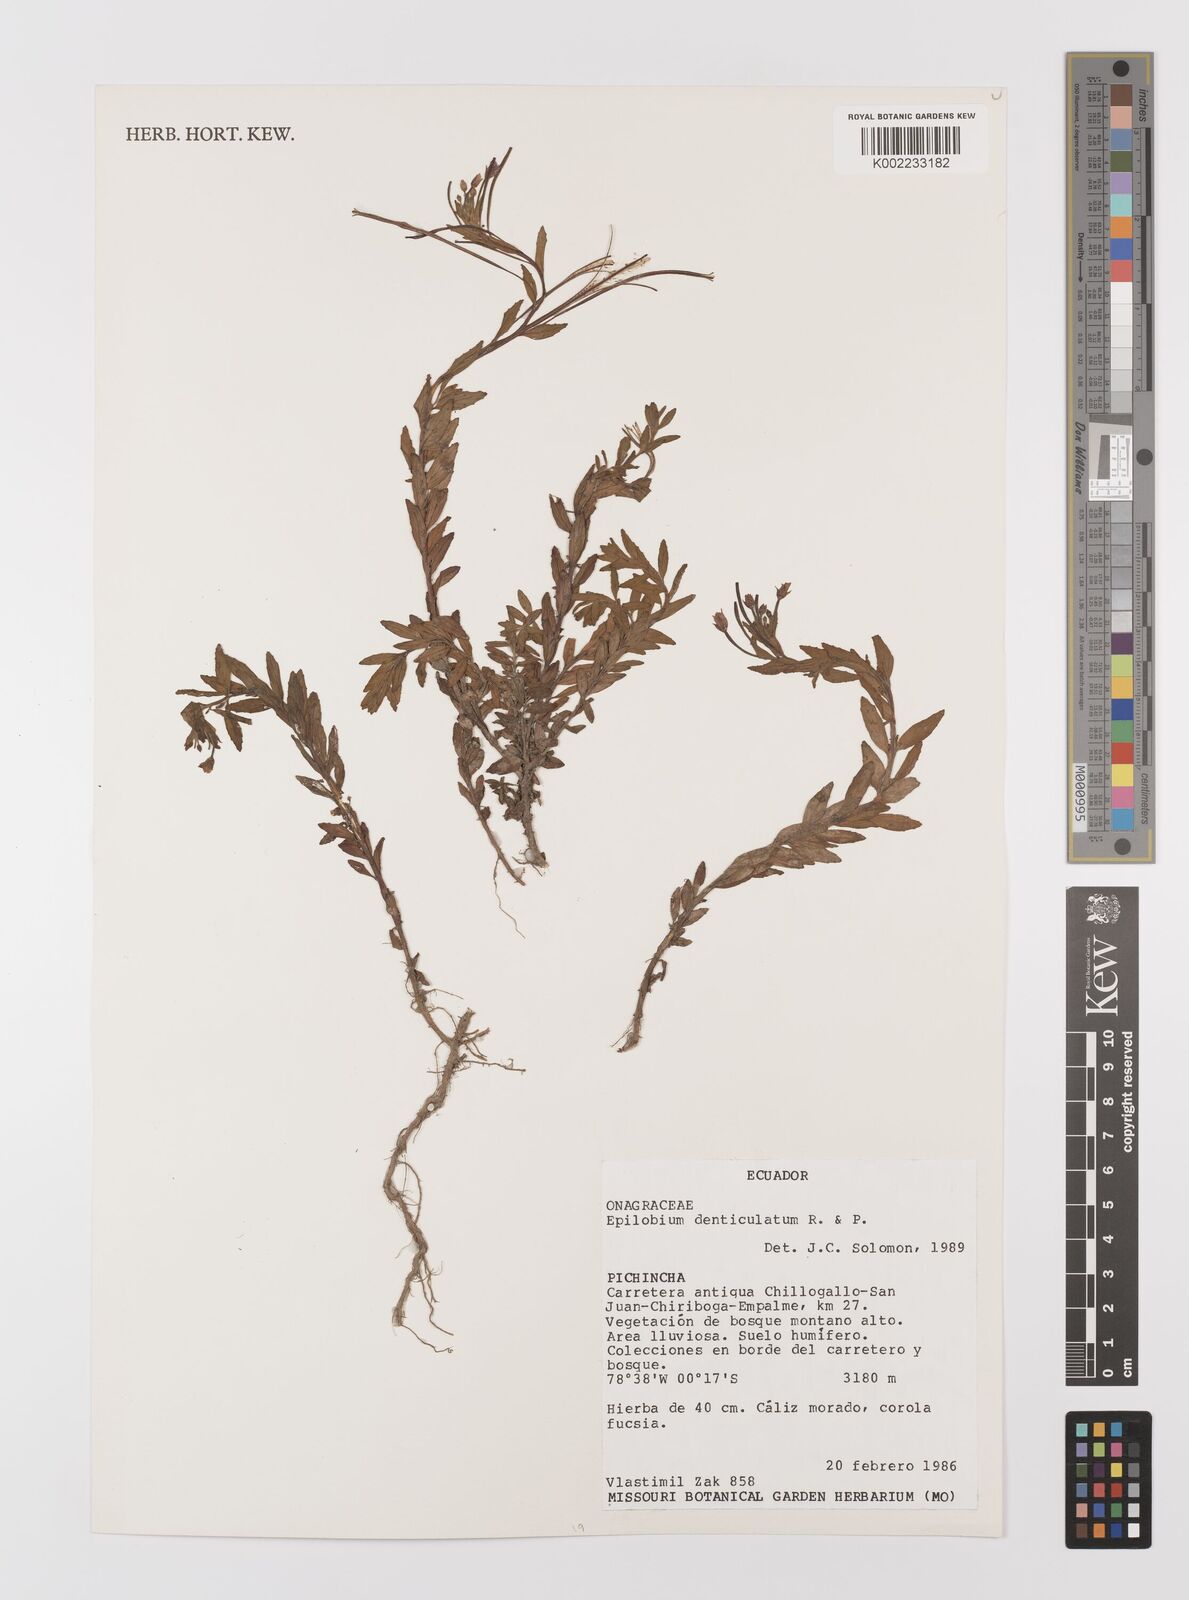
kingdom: Plantae
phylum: Tracheophyta
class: Magnoliopsida
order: Myrtales
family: Onagraceae
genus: Epilobium
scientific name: Epilobium denticulatum
